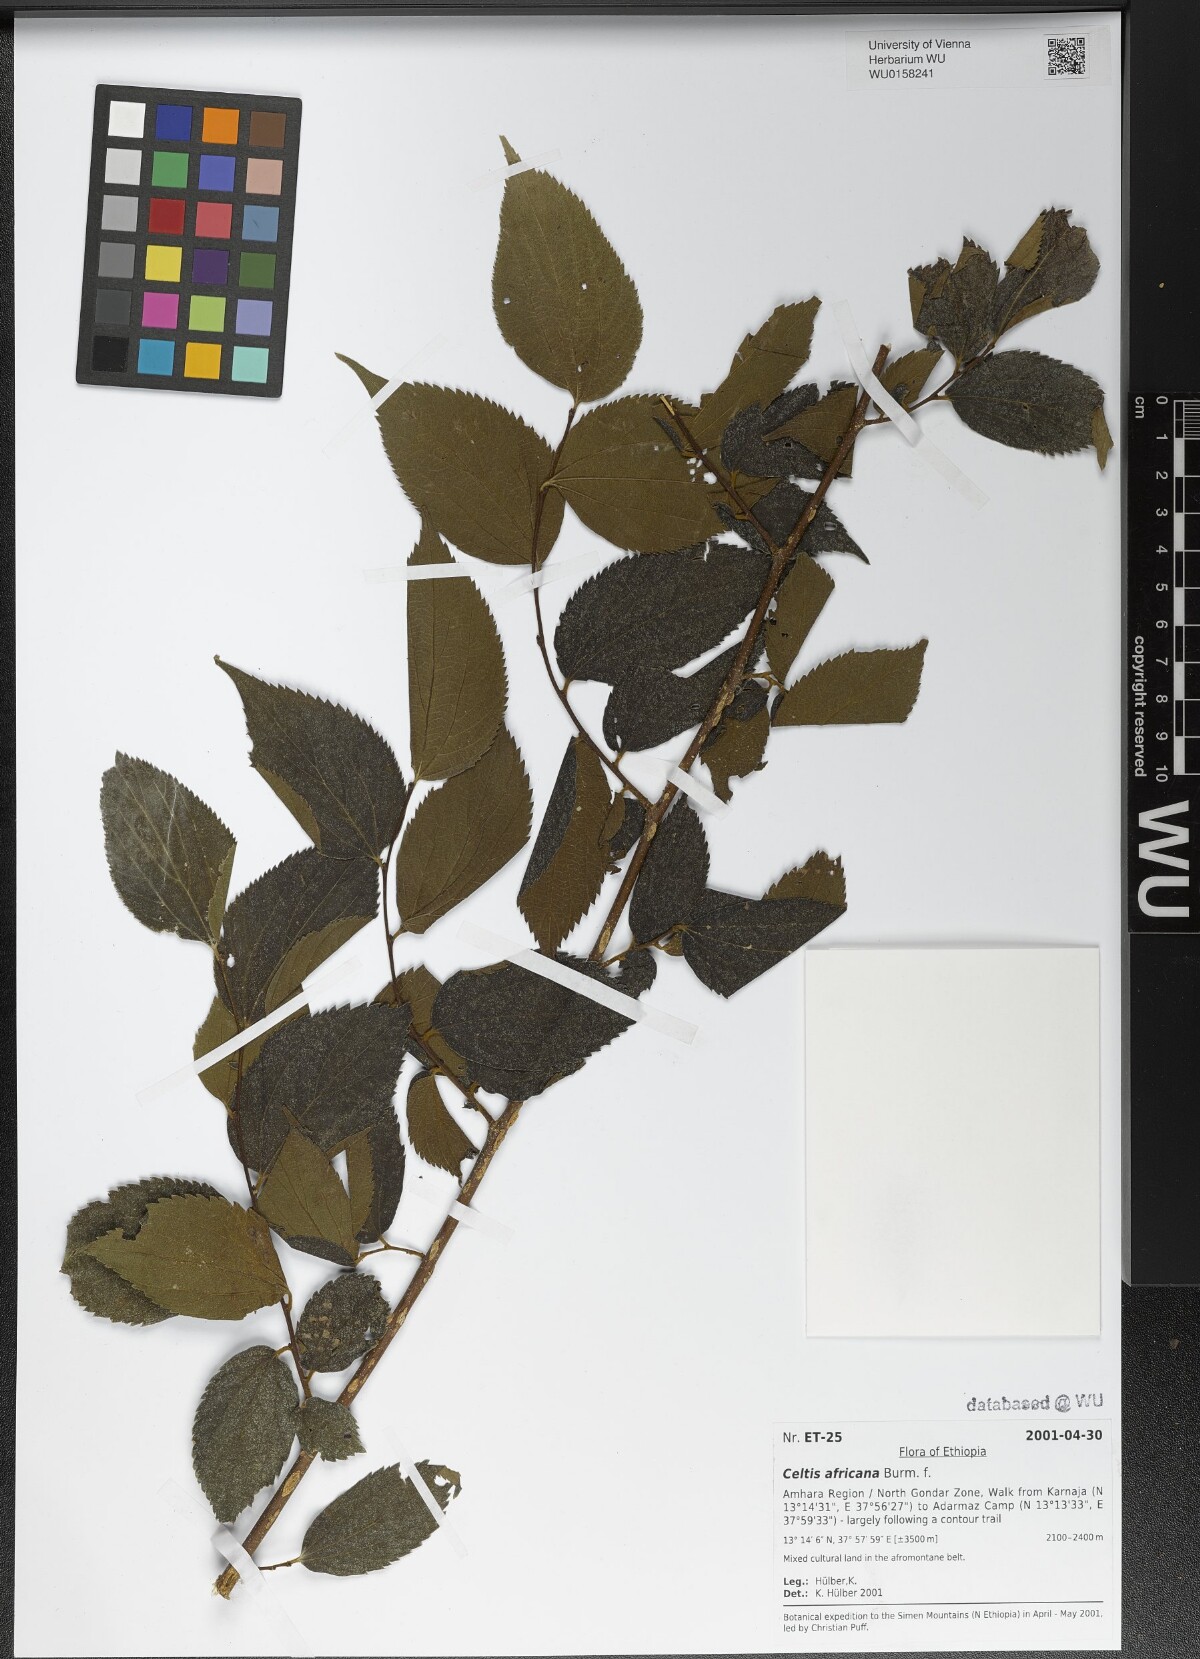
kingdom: Plantae
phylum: Tracheophyta
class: Magnoliopsida
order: Rosales
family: Ulmaceae
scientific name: Ulmaceae
